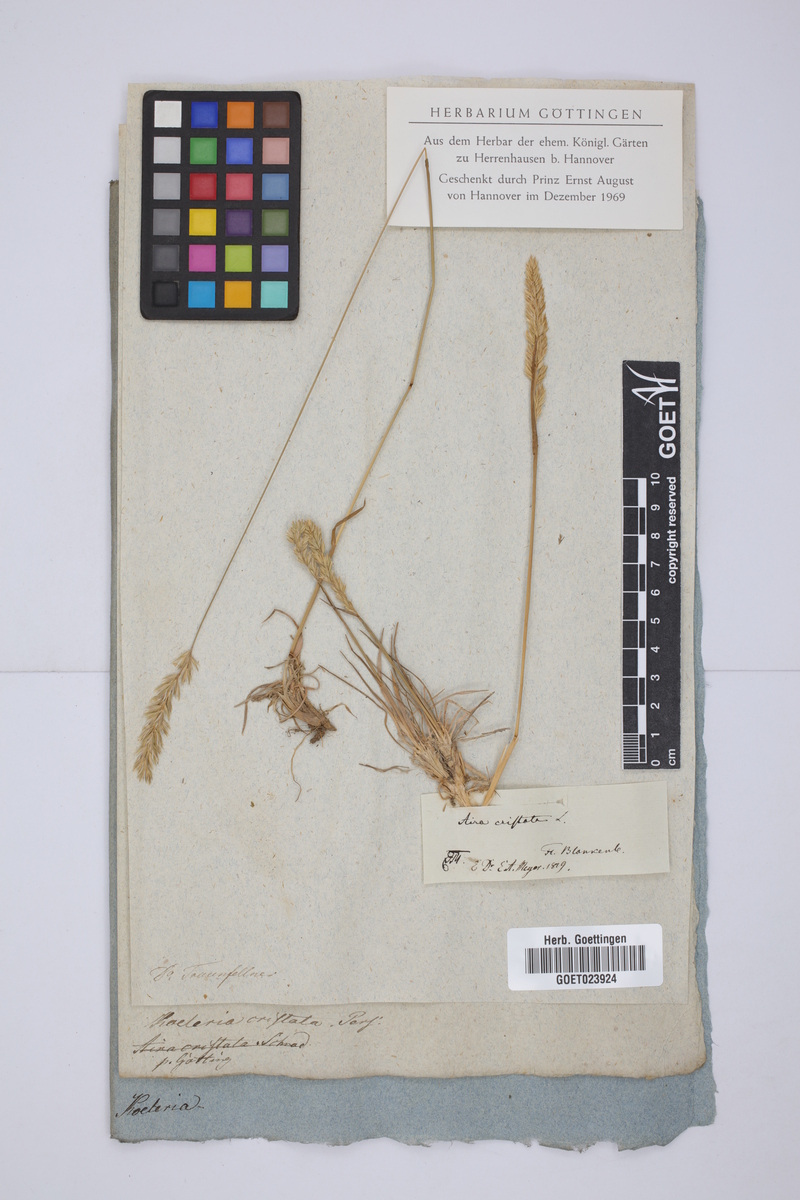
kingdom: Plantae
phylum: Tracheophyta
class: Liliopsida
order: Poales
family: Poaceae
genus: Koeleria
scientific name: Koeleria macrantha
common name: Crested hair-grass
